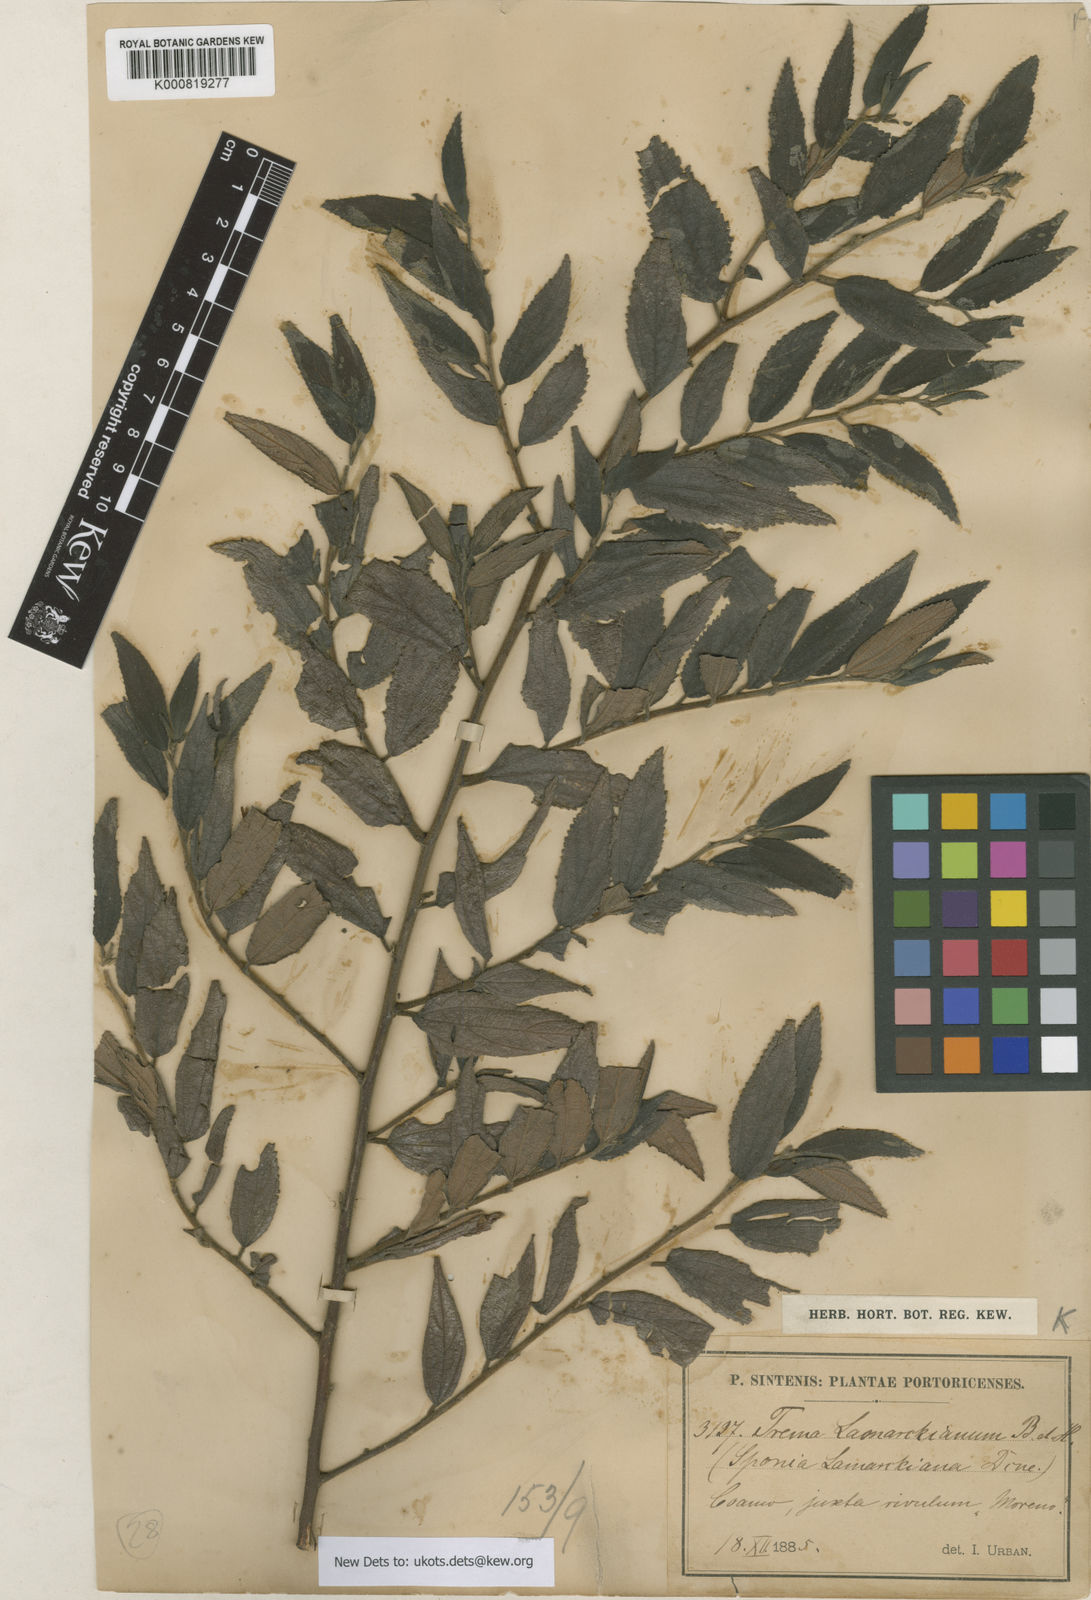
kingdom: Plantae
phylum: Tracheophyta
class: Magnoliopsida
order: Rosales
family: Cannabaceae
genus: Trema
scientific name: Trema lamarckianum
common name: Lamarck's trema
